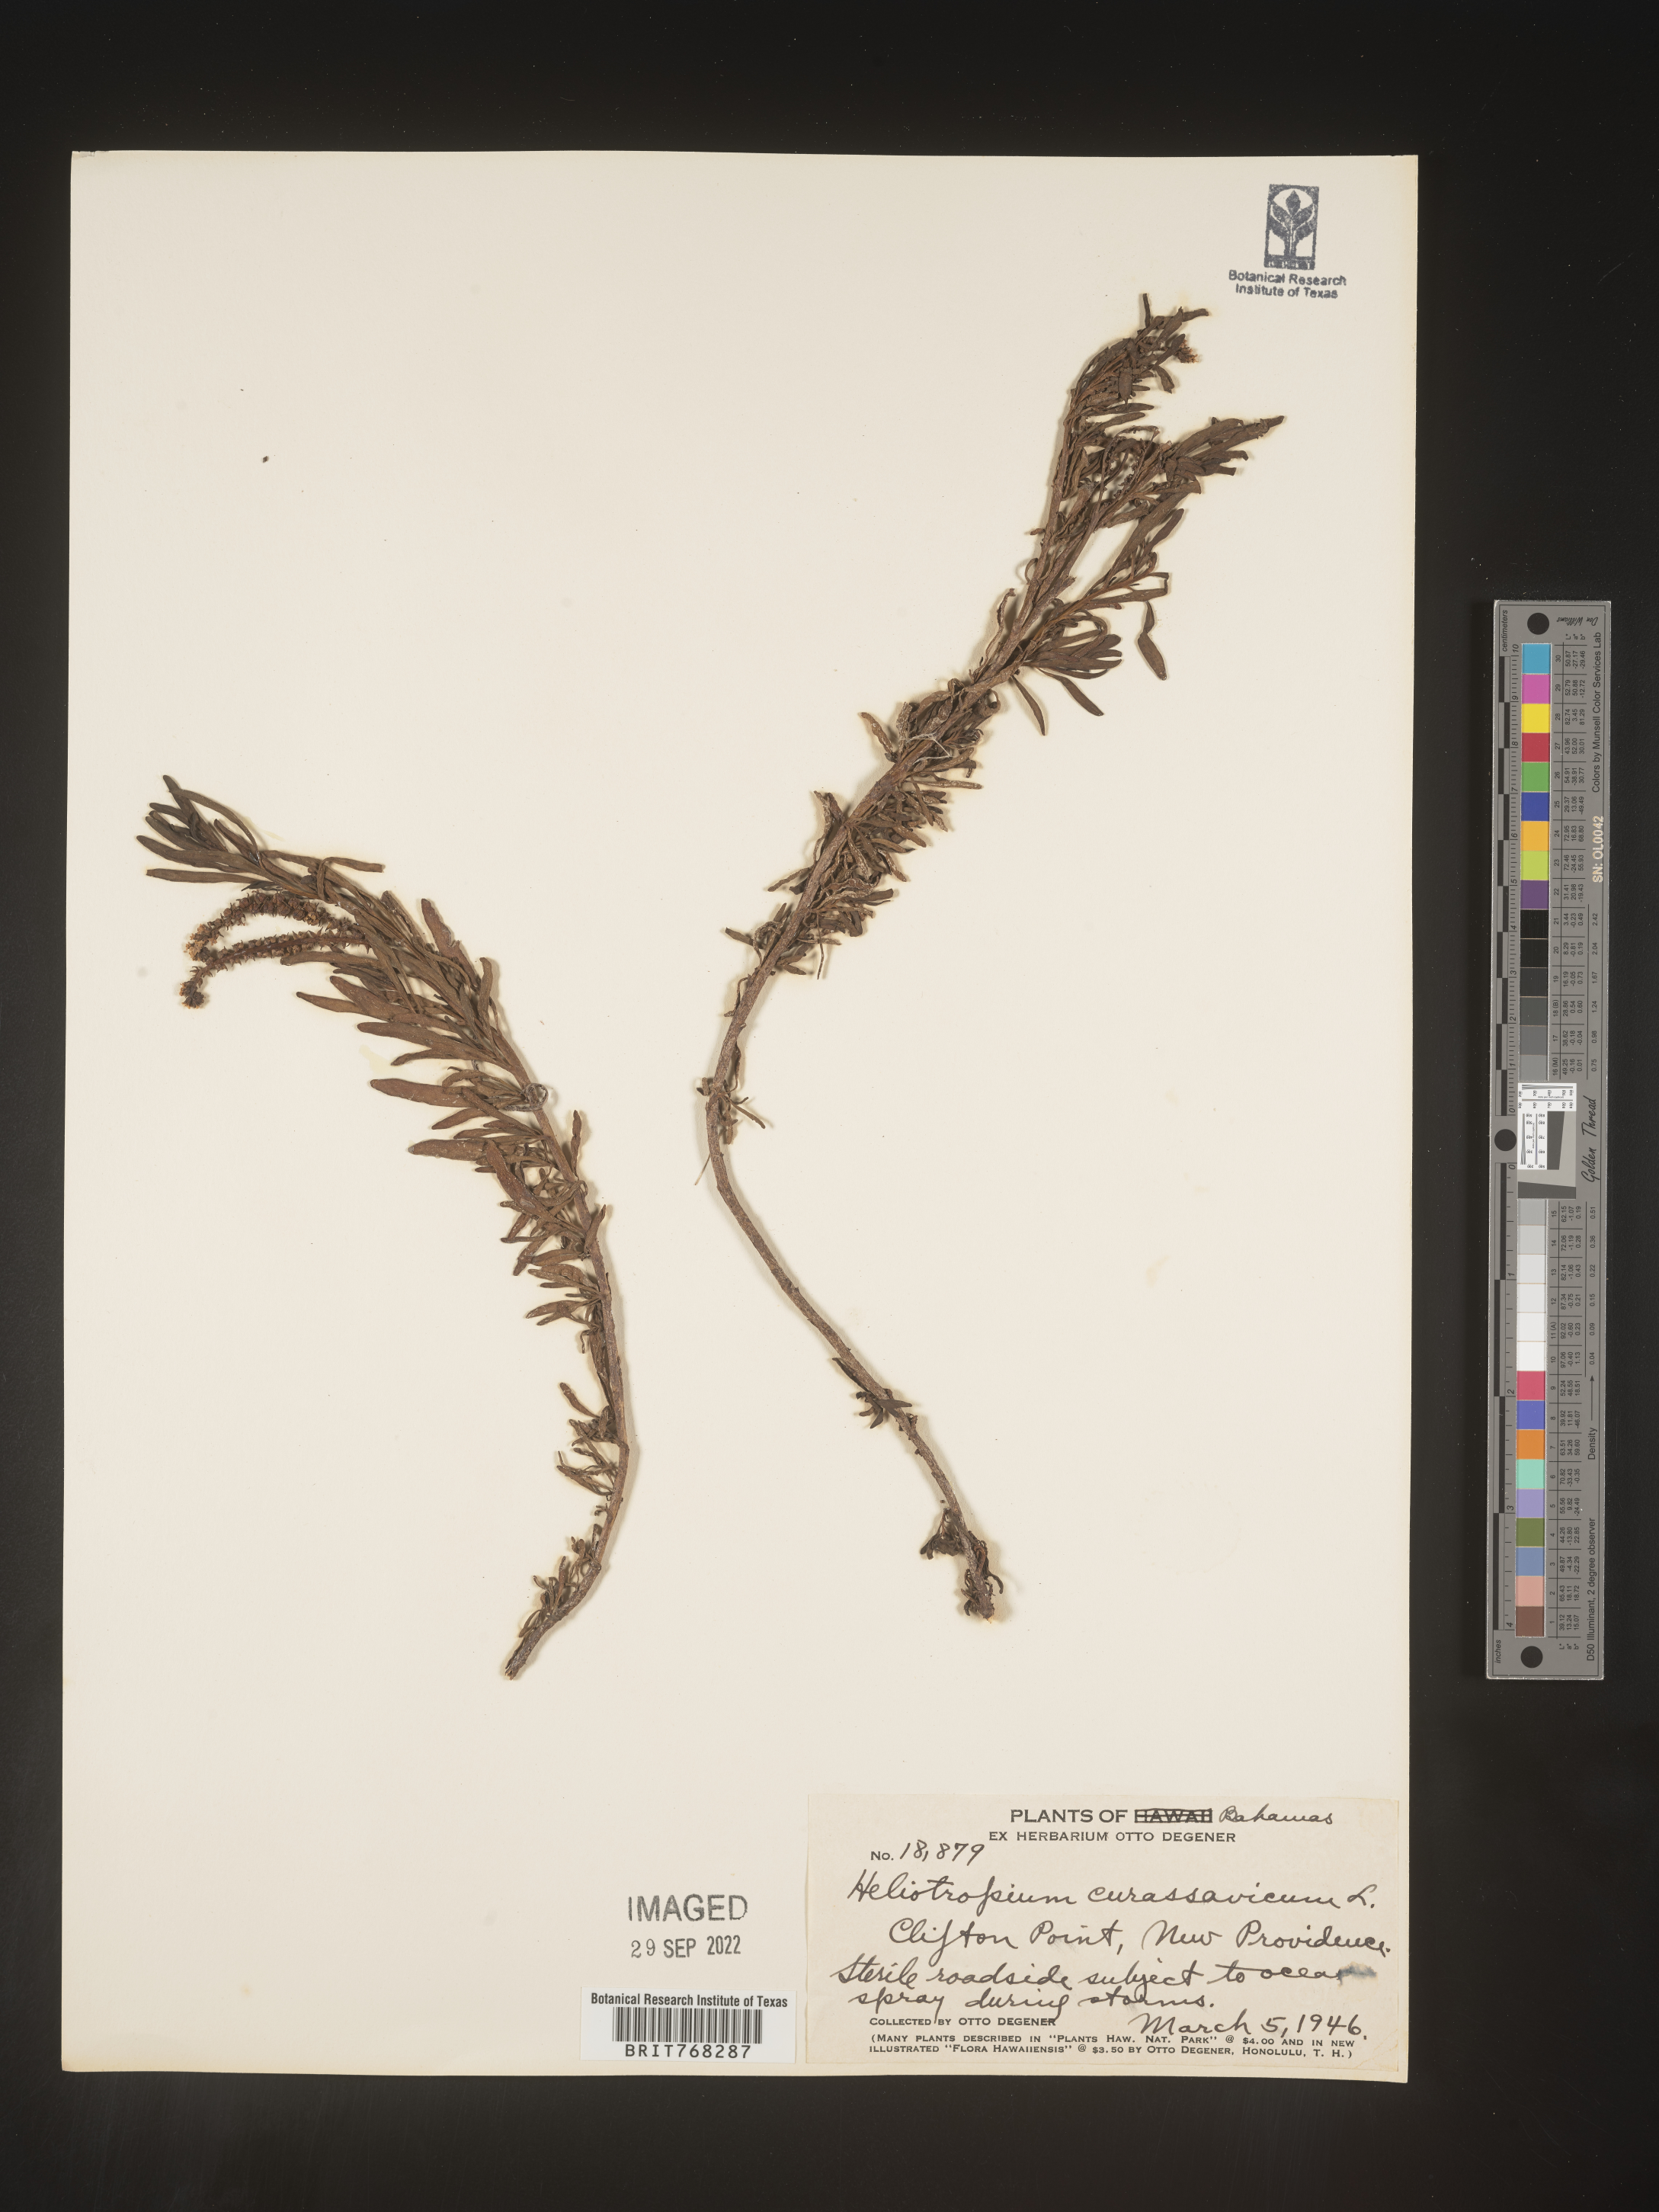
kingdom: Plantae
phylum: Tracheophyta
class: Magnoliopsida
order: Boraginales
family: Heliotropiaceae
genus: Heliotropium
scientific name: Heliotropium
